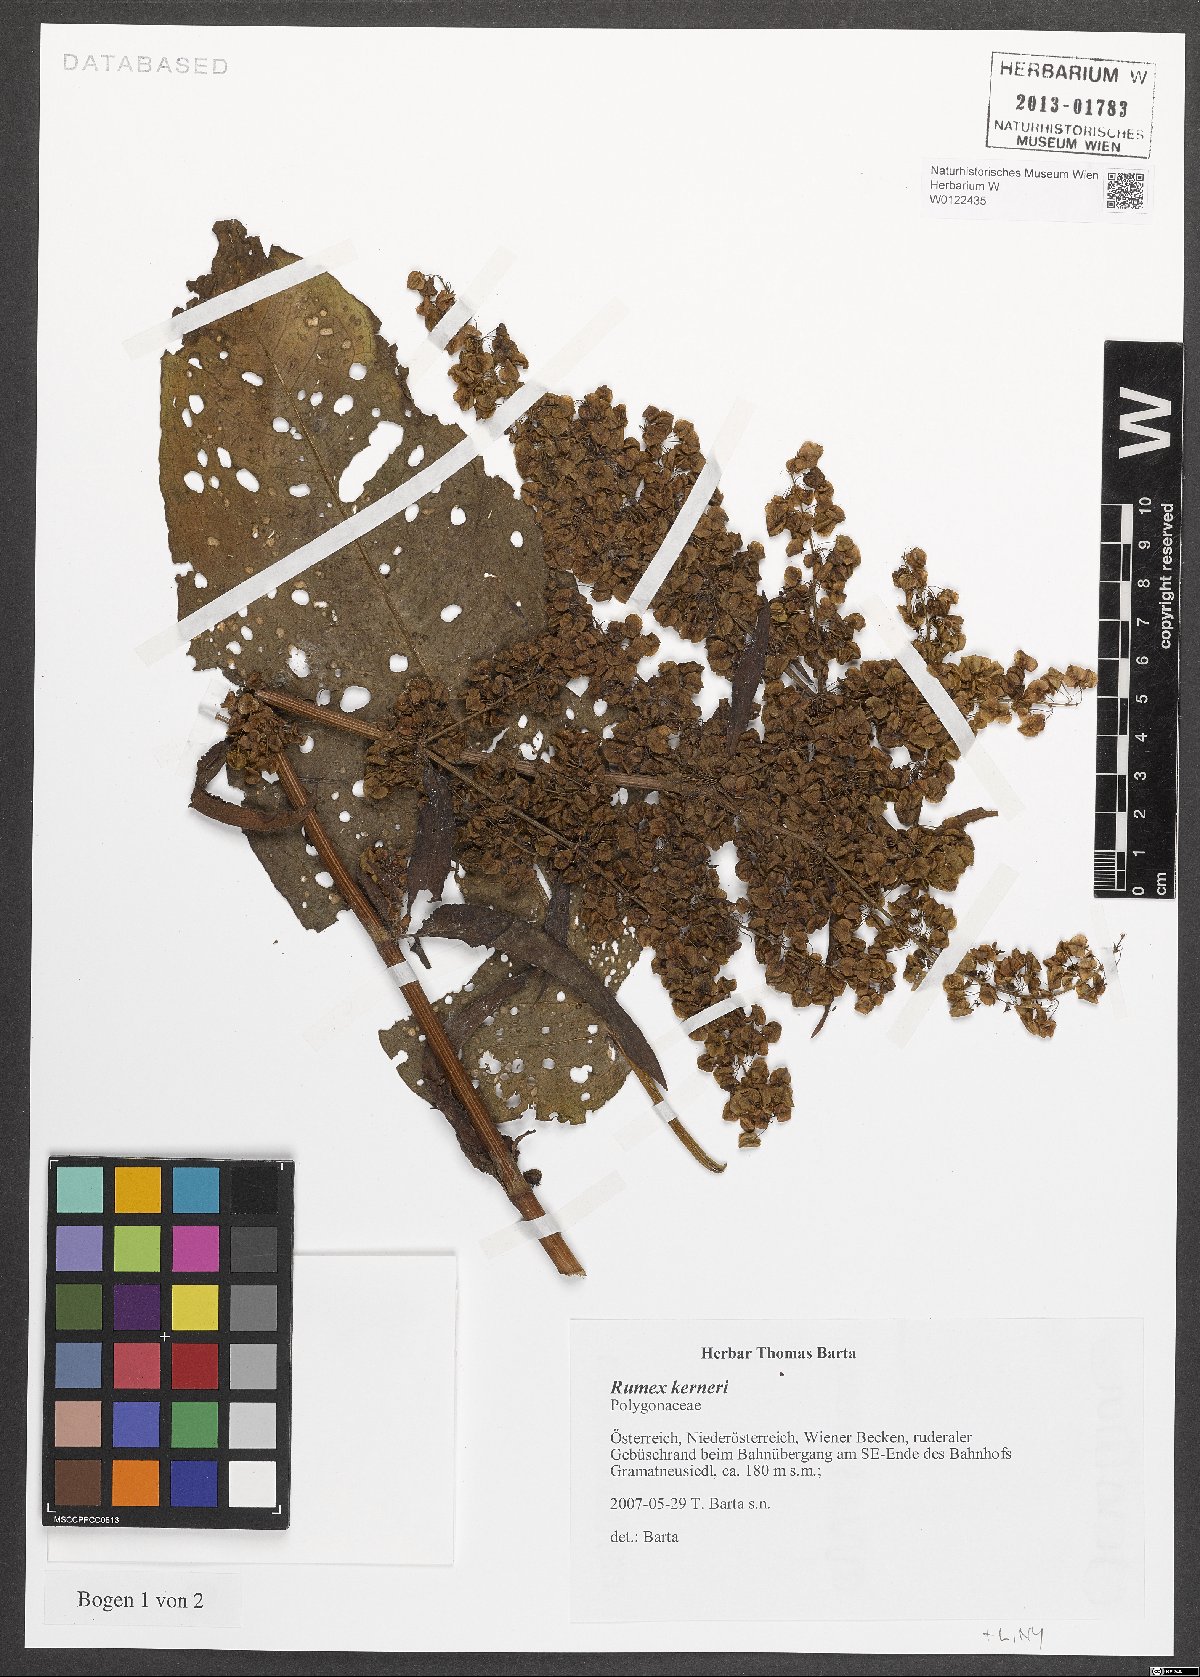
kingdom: Plantae
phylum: Tracheophyta
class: Magnoliopsida
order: Caryophyllales
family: Polygonaceae
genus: Rumex
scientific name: Rumex kerneri
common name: Kerner's dock
